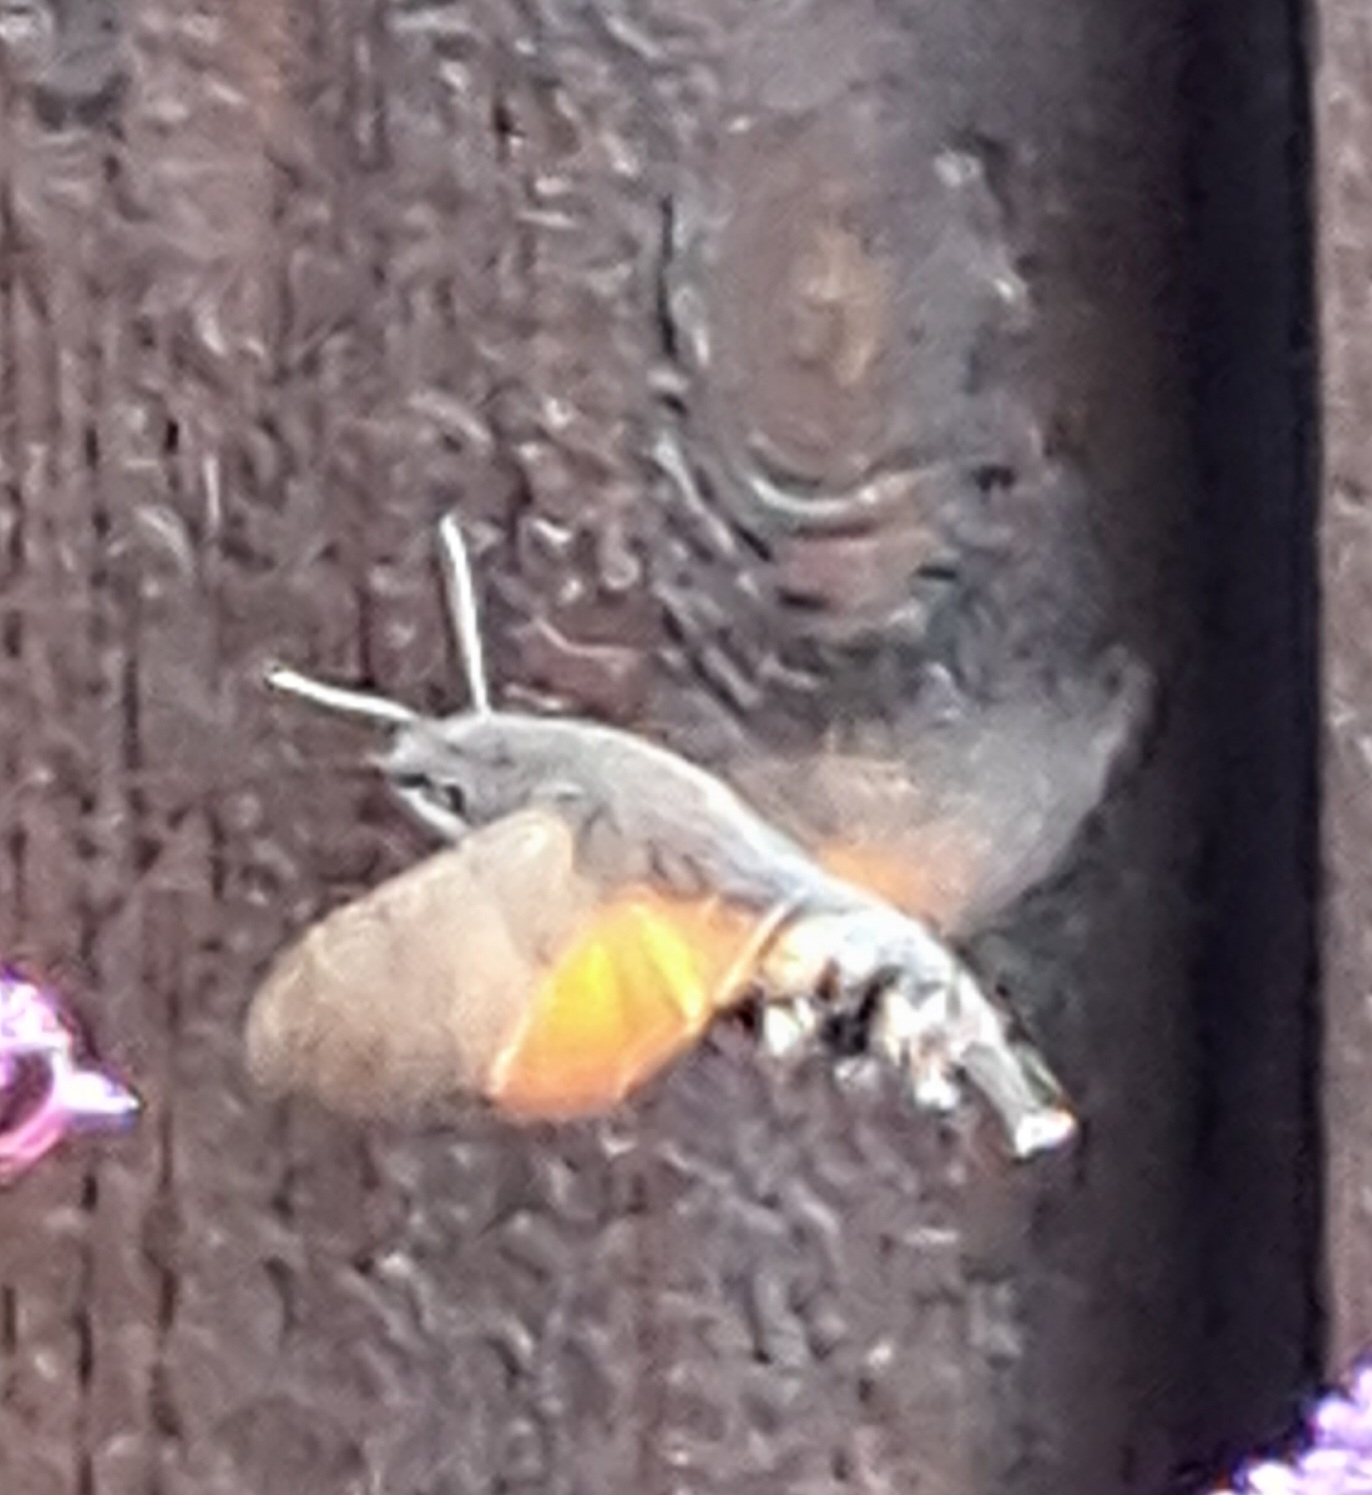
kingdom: Animalia
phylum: Arthropoda
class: Insecta
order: Lepidoptera
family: Sphingidae
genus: Macroglossum
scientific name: Macroglossum stellatarum
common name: Duehale
